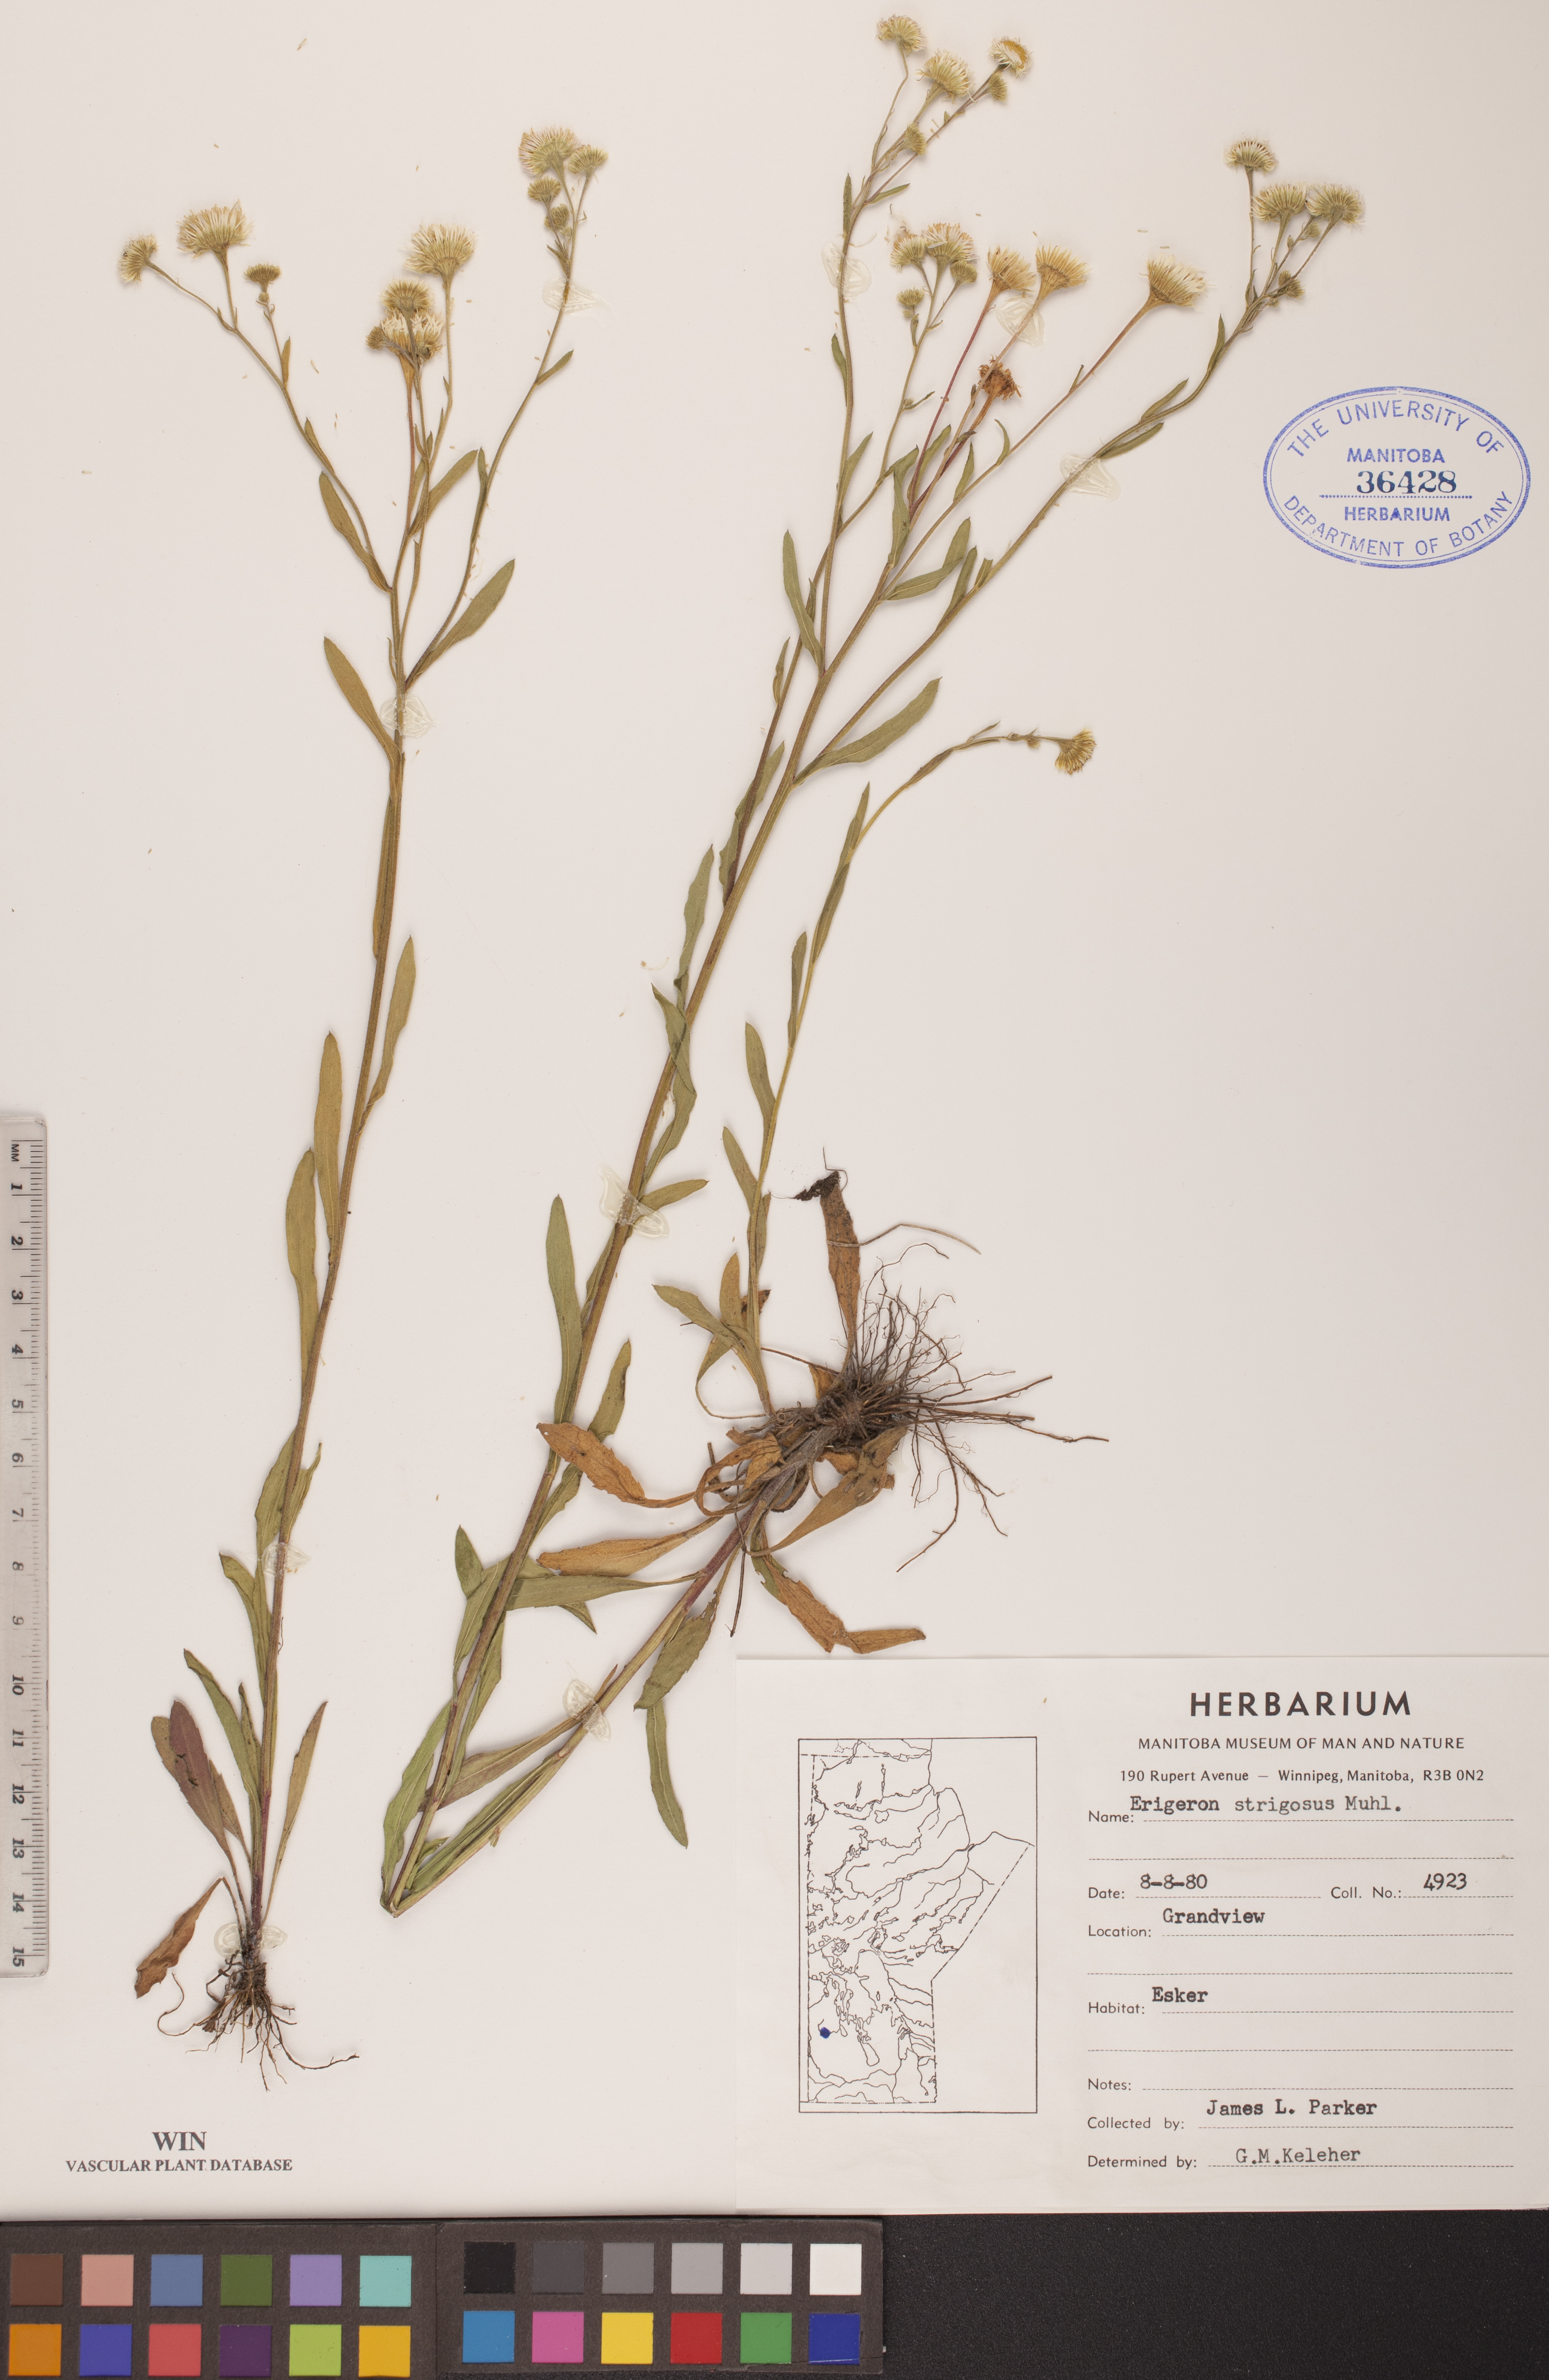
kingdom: Plantae
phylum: Tracheophyta
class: Magnoliopsida
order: Asterales
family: Asteraceae
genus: Erigeron
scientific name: Erigeron strigosus
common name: Common eastern fleabane
